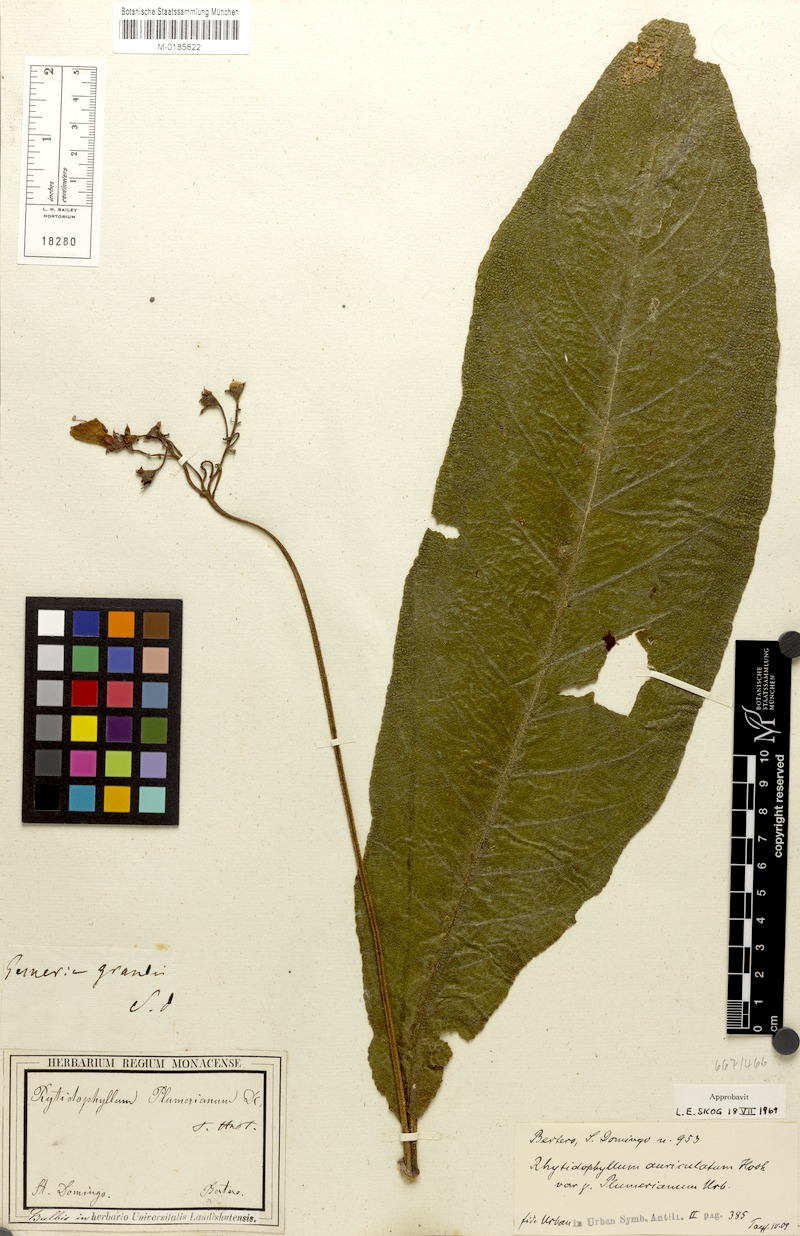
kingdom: Plantae
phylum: Tracheophyta
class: Magnoliopsida
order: Lamiales
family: Gesneriaceae
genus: Rhytidophyllum
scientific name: Rhytidophyllum auriculatum
